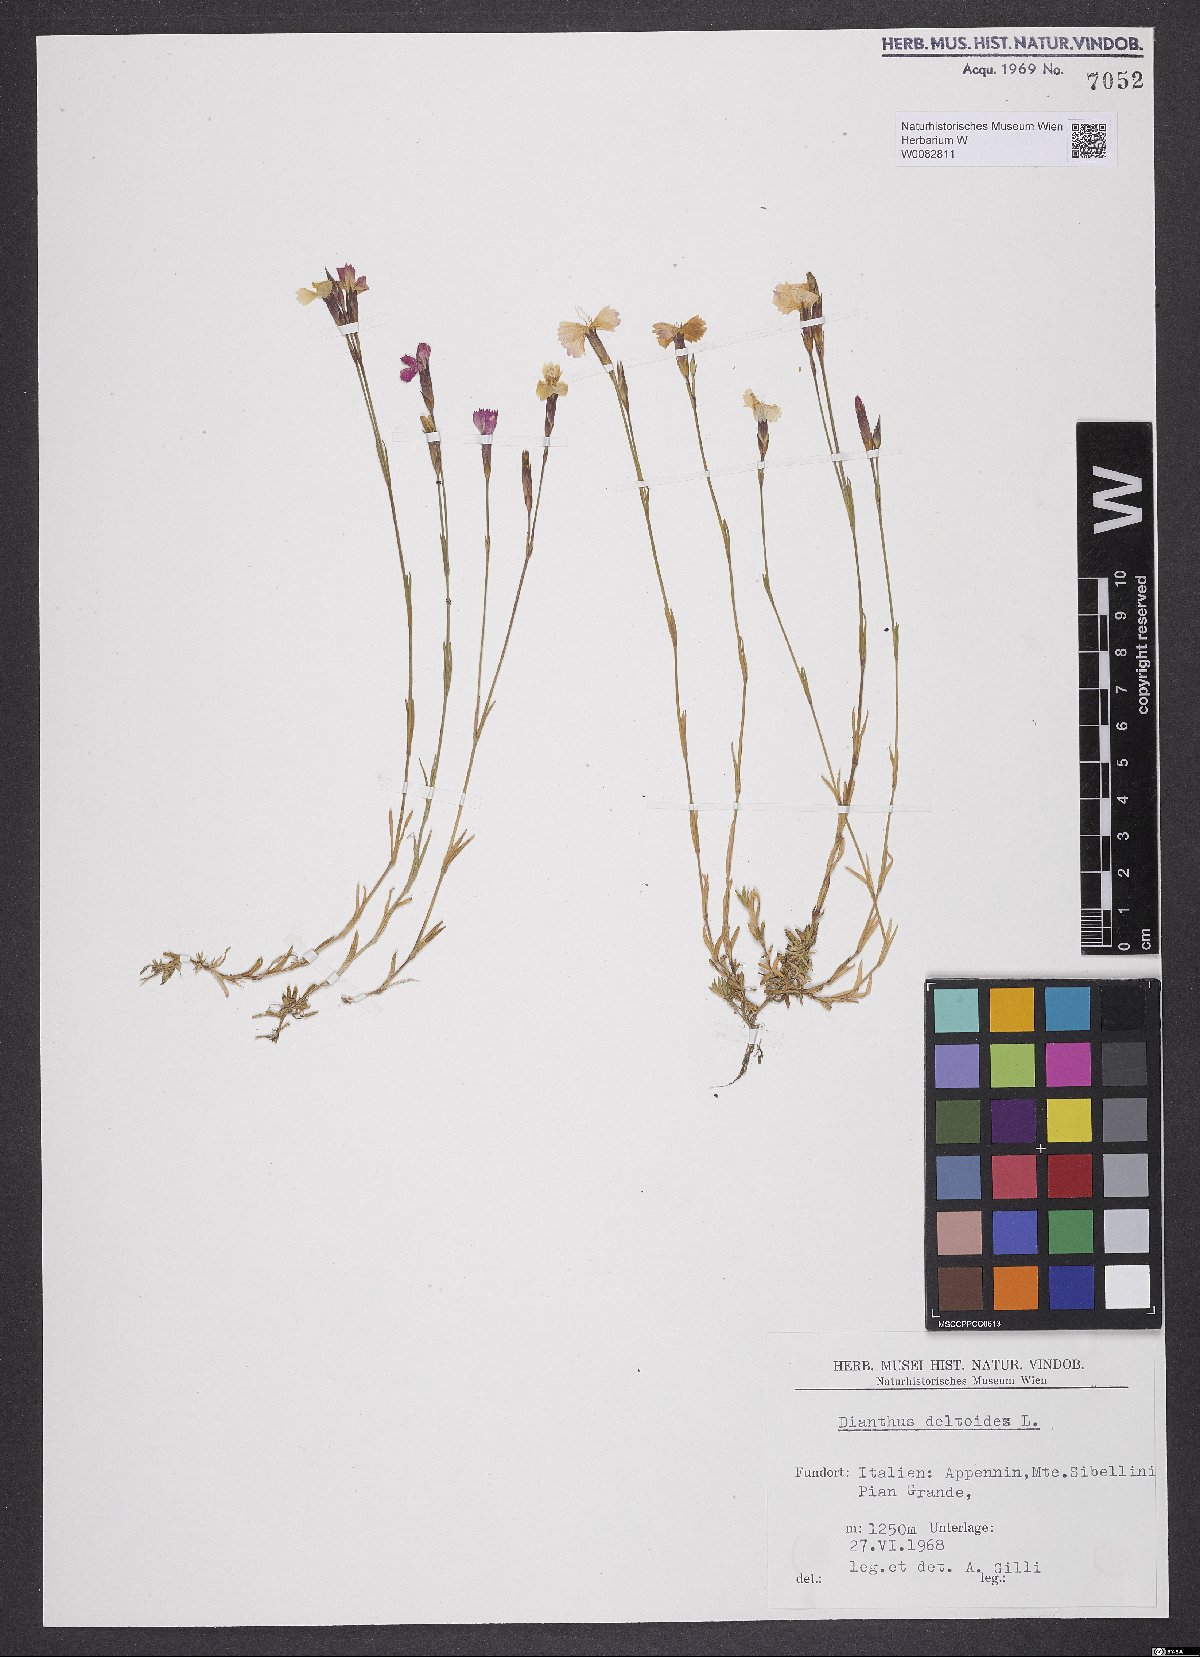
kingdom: Plantae
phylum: Tracheophyta
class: Magnoliopsida
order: Caryophyllales
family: Caryophyllaceae
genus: Dianthus
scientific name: Dianthus deltoides
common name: Maiden pink
